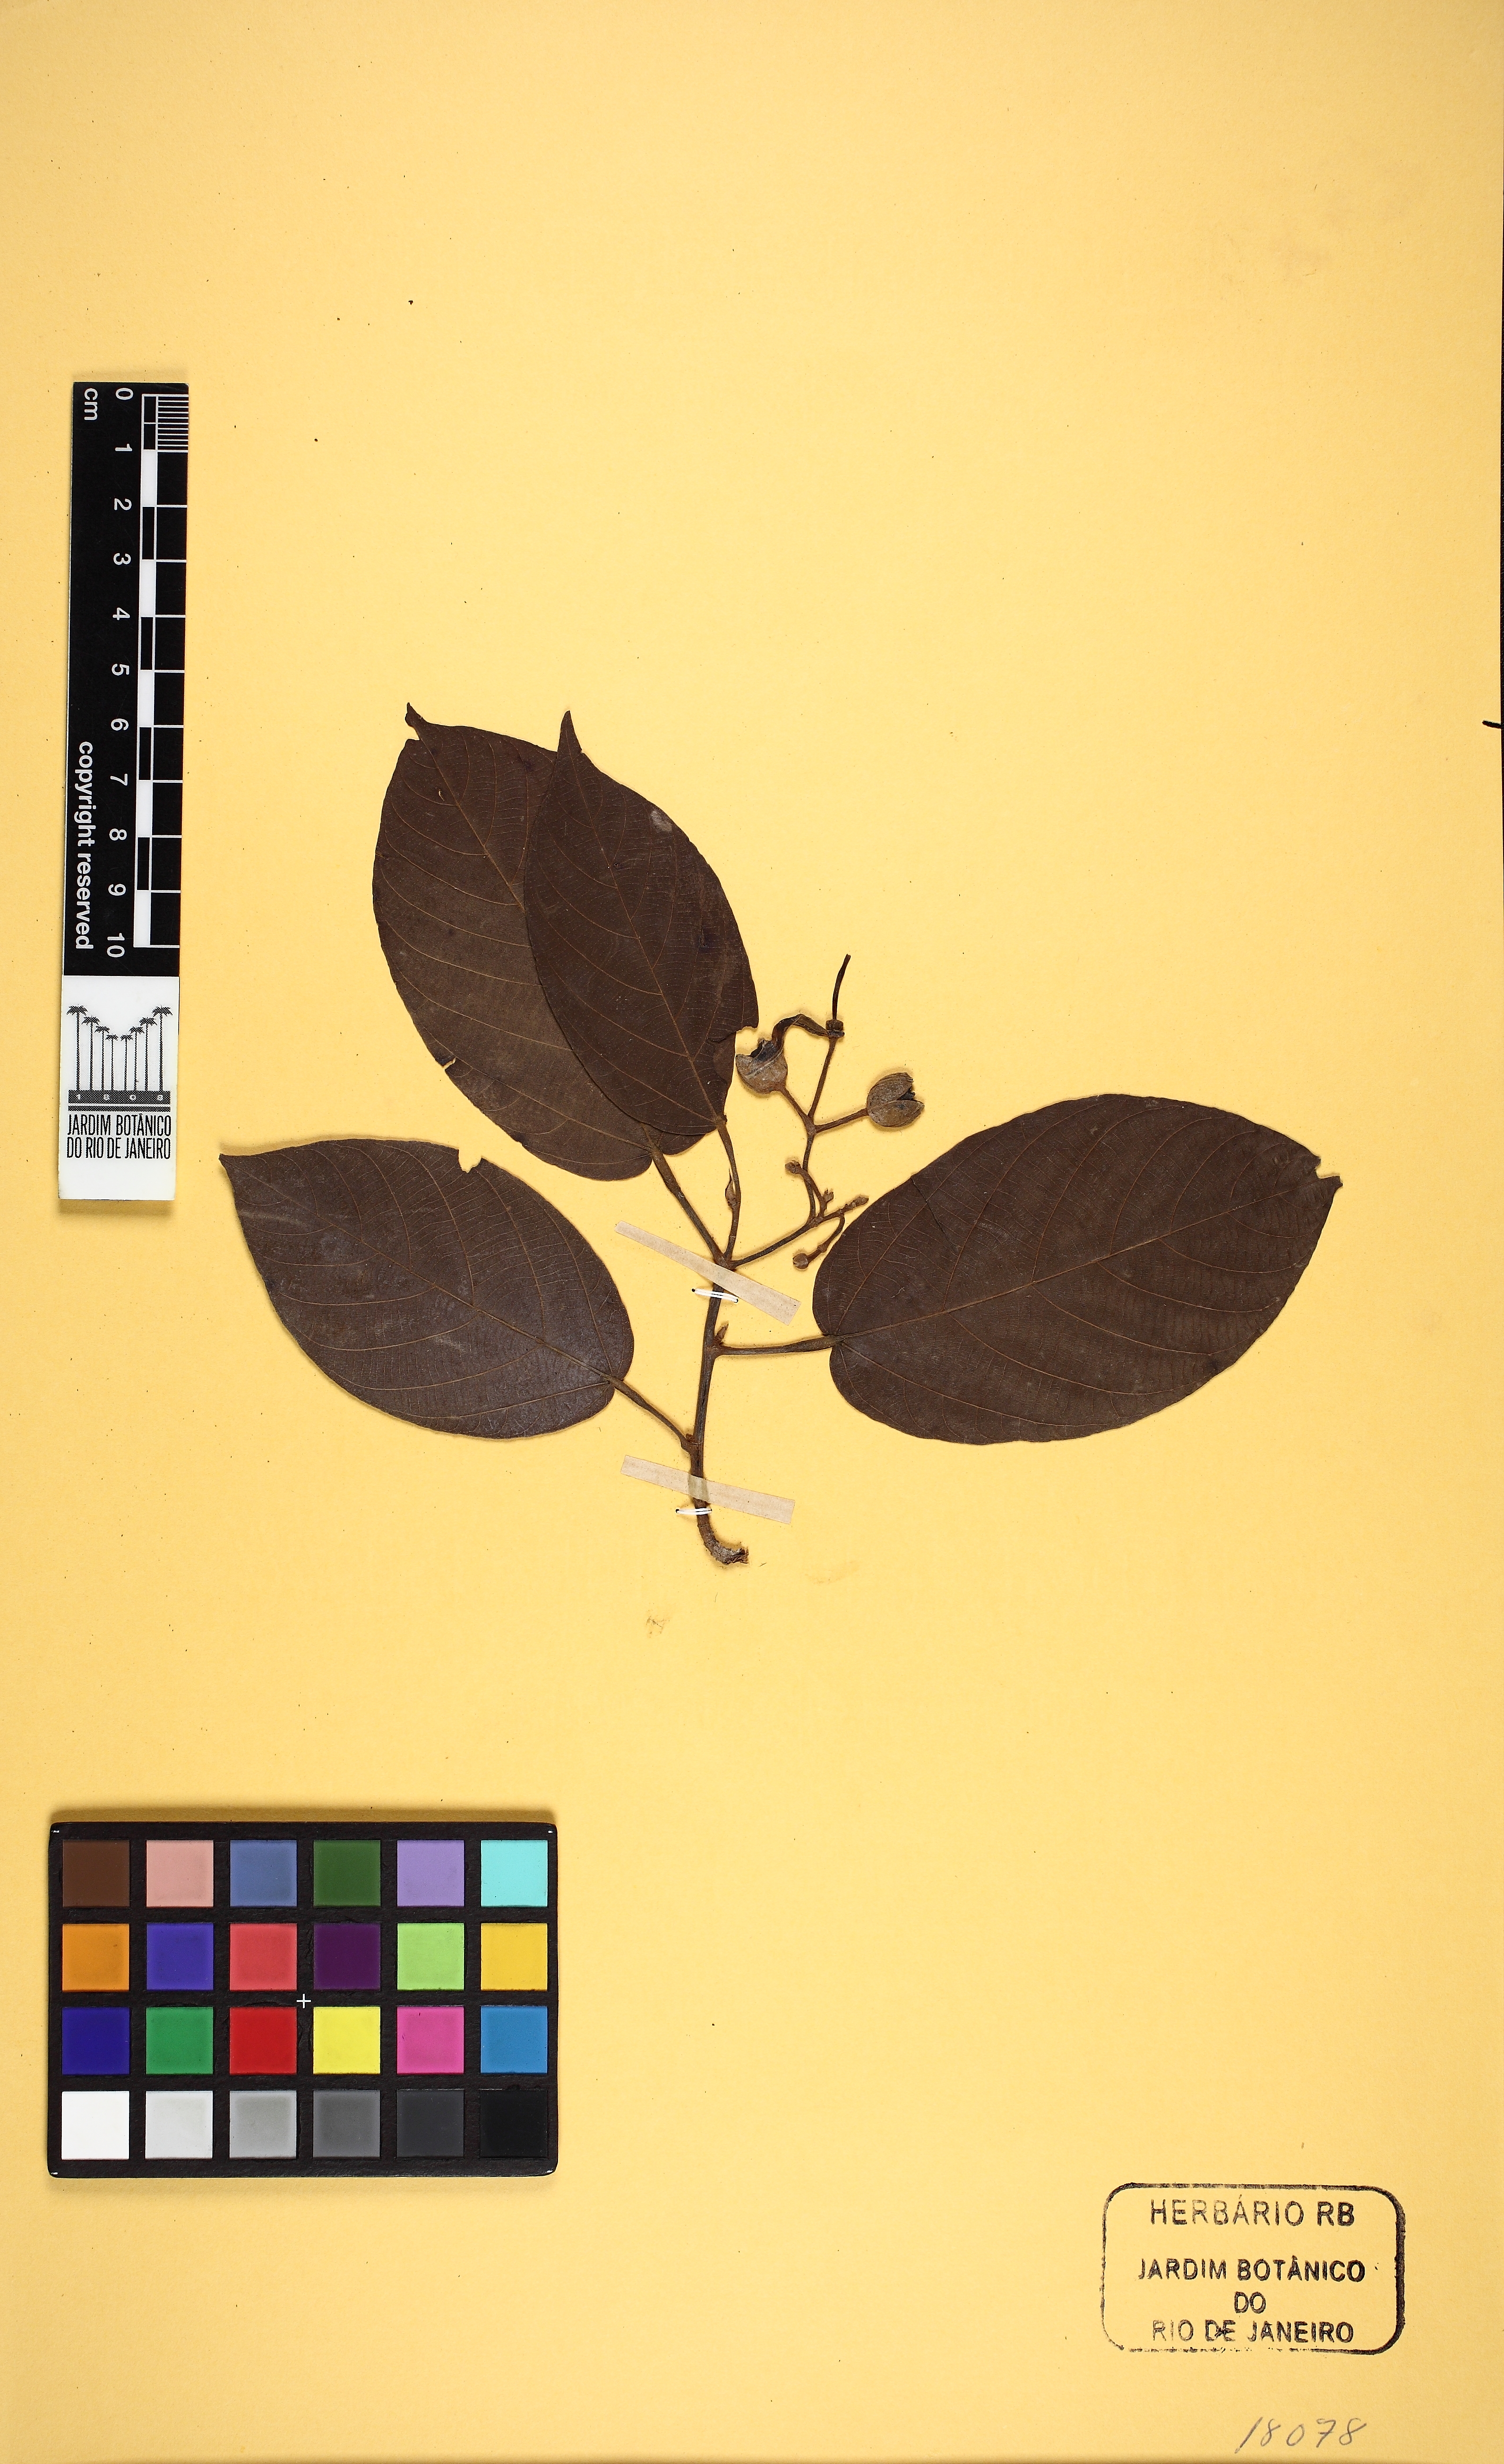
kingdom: Plantae
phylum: Tracheophyta
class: Magnoliopsida
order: Malvales
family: Malvaceae
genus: Apeiba
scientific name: Apeiba membranacea
